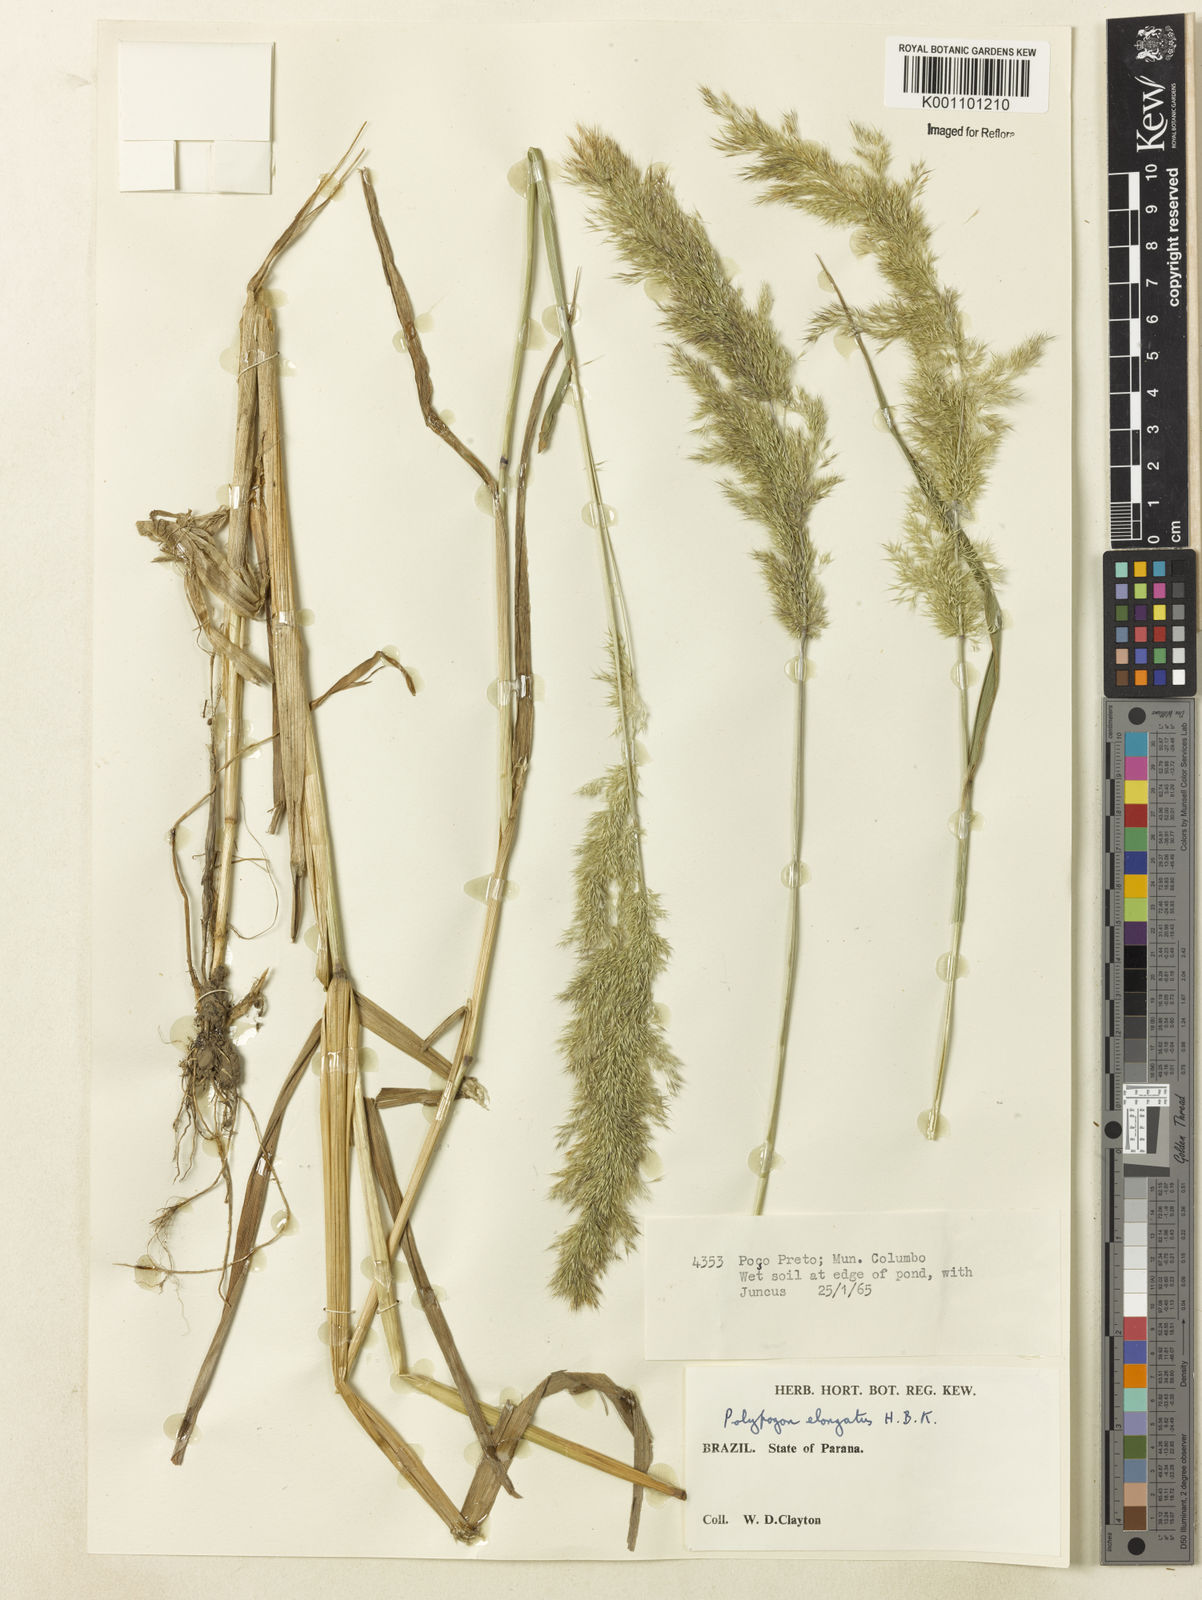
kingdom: Plantae
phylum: Tracheophyta
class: Liliopsida
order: Poales
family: Poaceae
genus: Polypogon
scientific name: Polypogon elongatus
